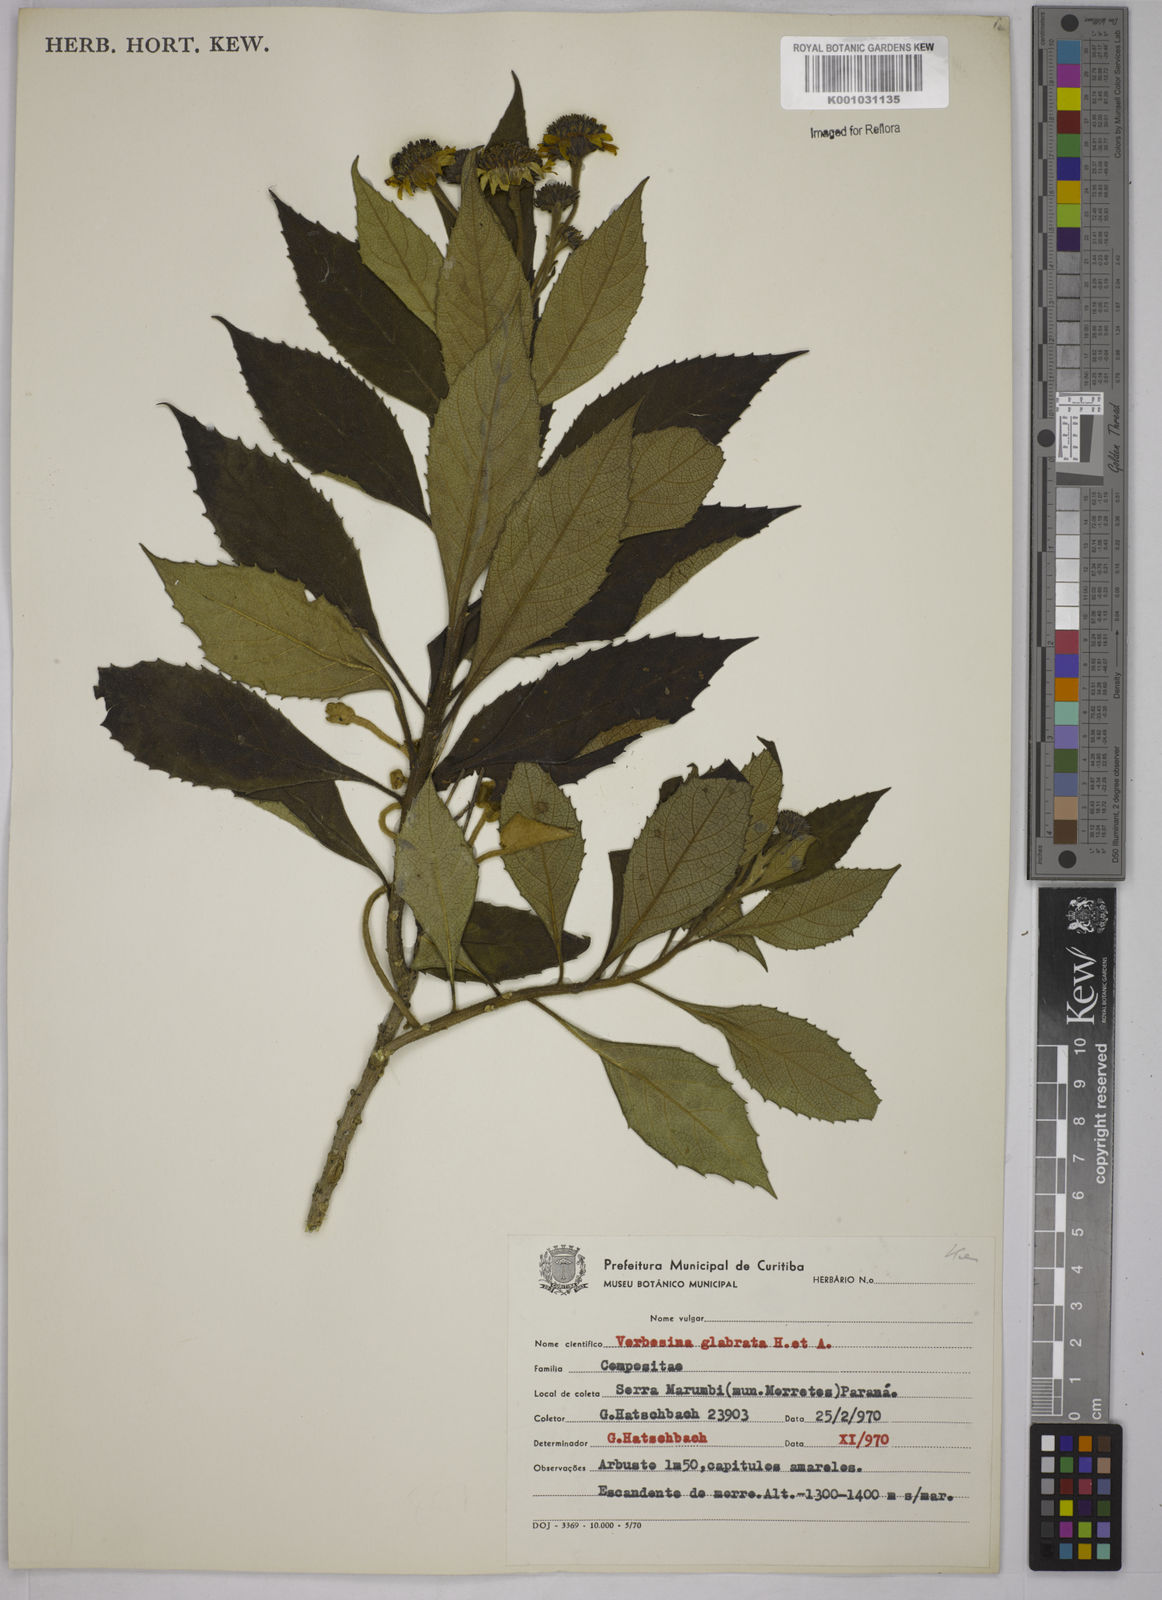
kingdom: Plantae
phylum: Tracheophyta
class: Magnoliopsida
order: Asterales
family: Asteraceae
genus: Verbesina
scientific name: Verbesina glabrata
